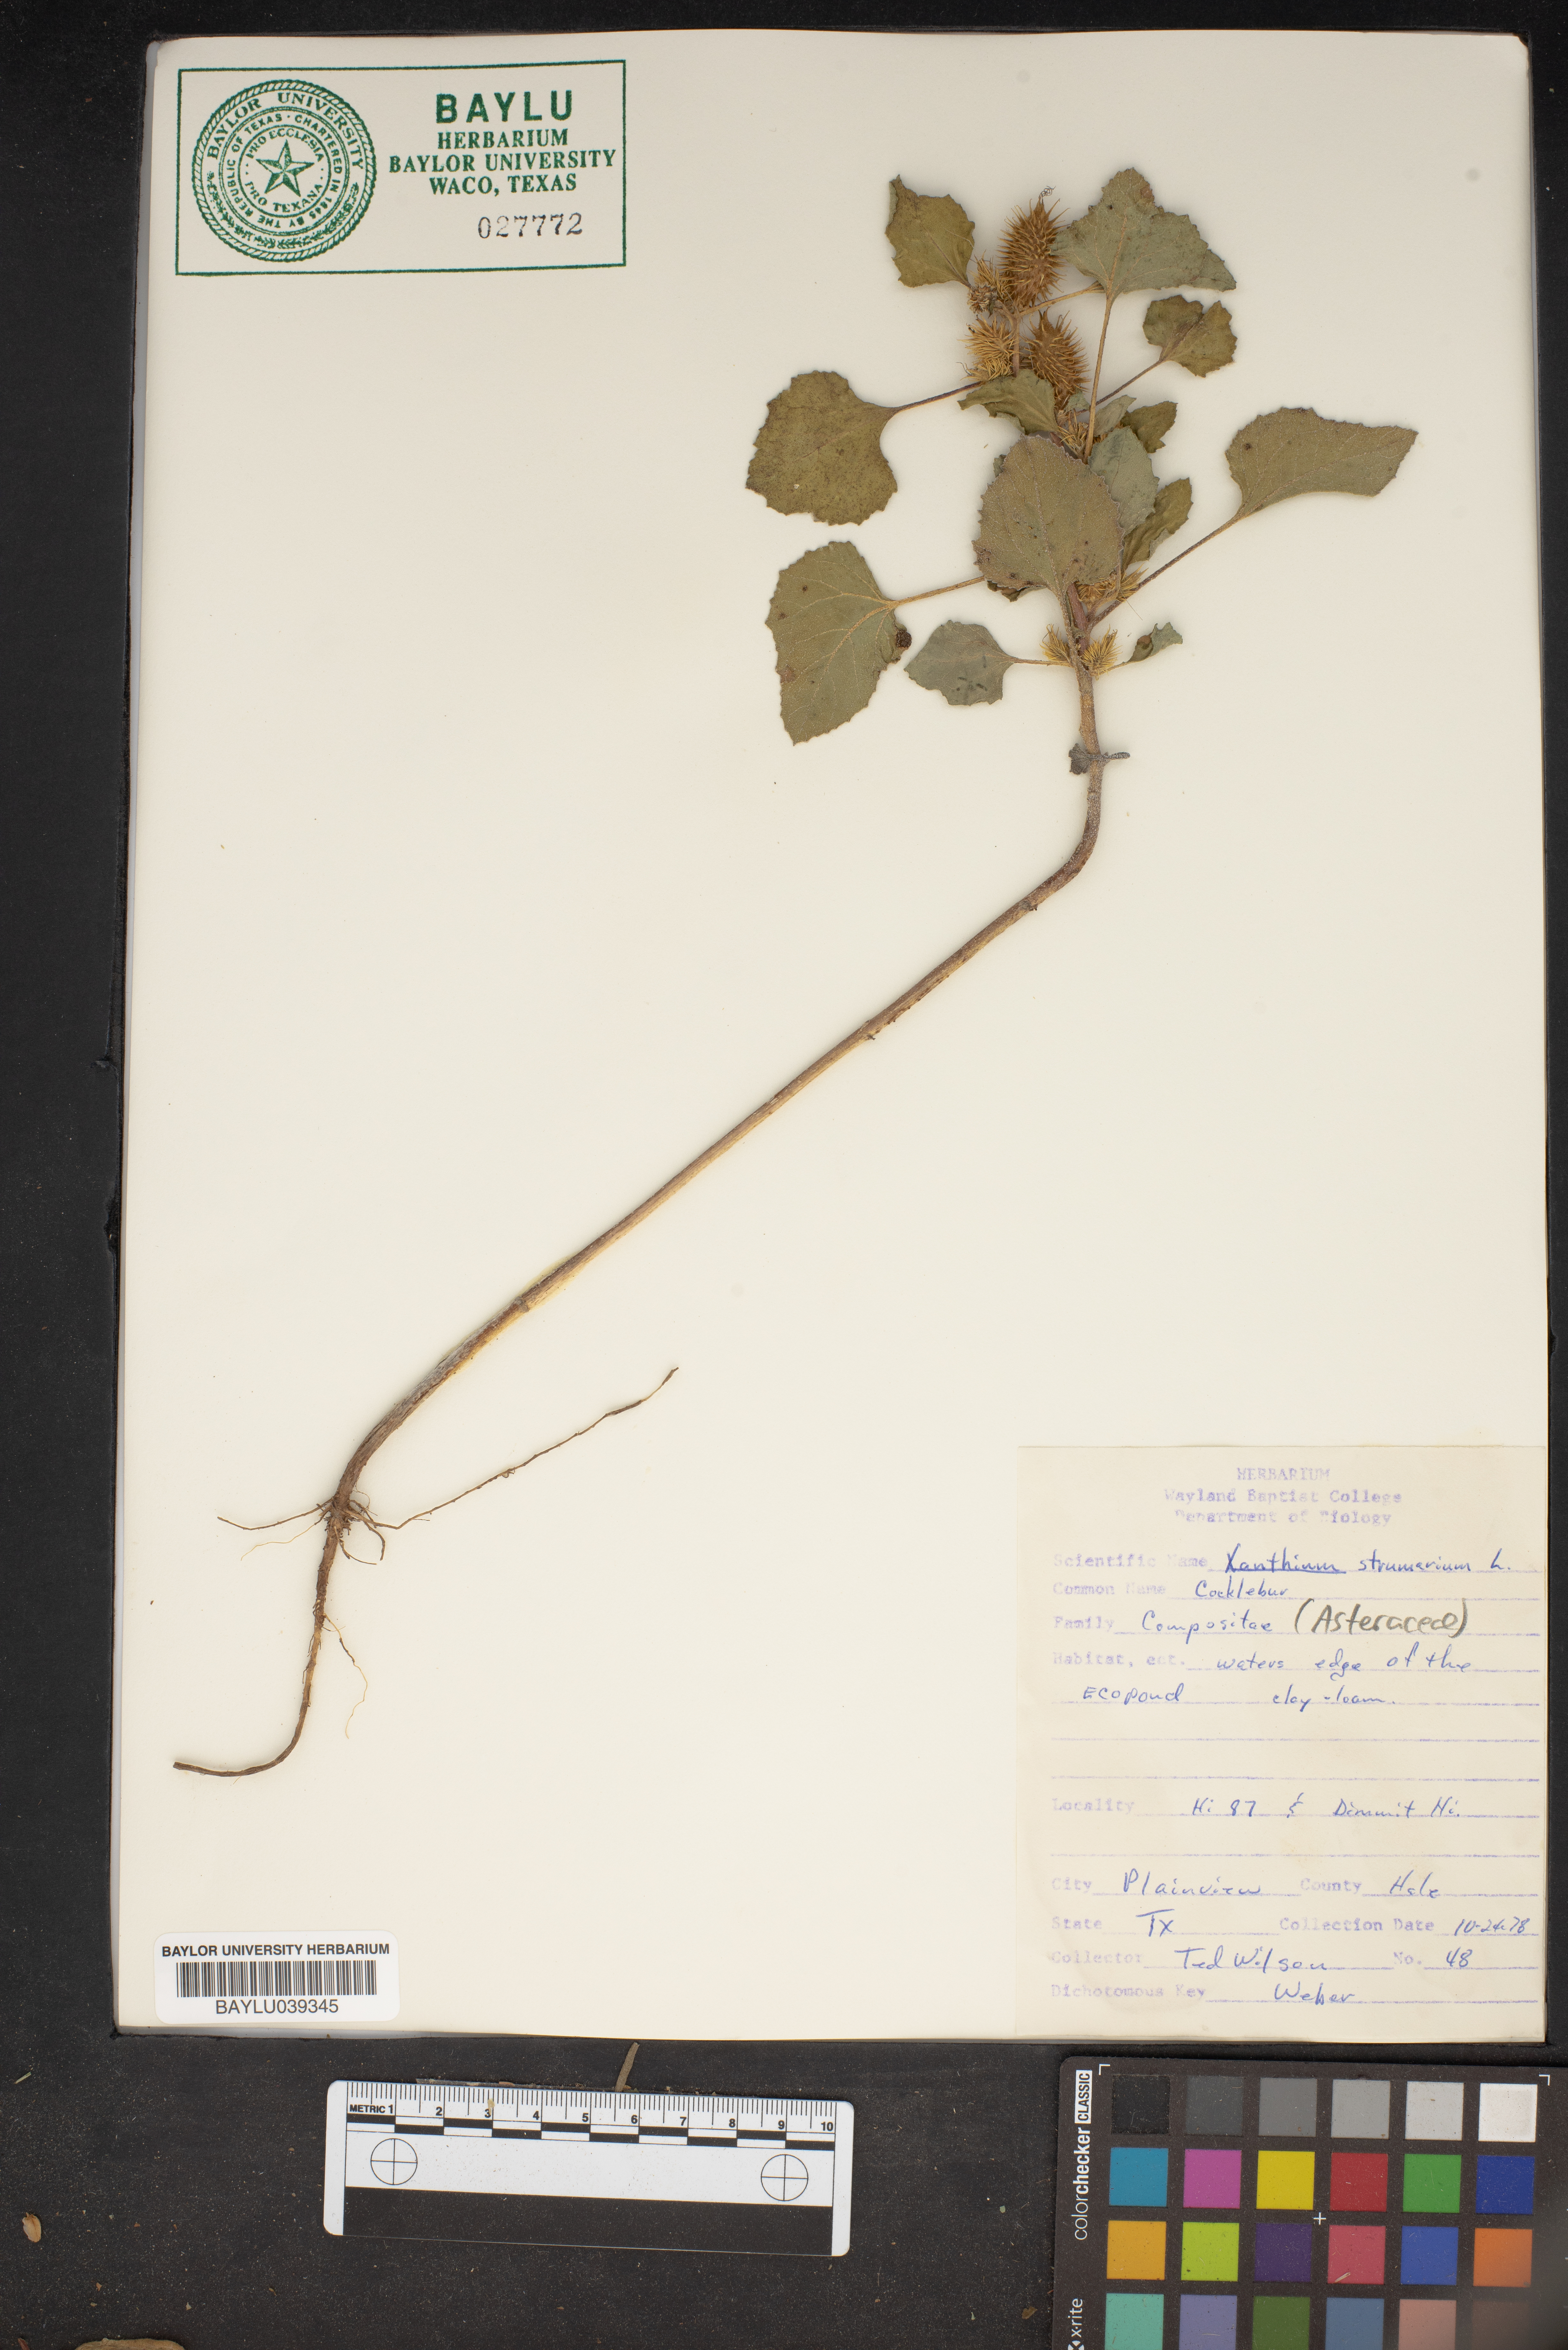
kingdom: Plantae
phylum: Tracheophyta
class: Magnoliopsida
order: Asterales
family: Asteraceae
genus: Xanthium
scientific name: Xanthium strumarium
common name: Rough cocklebur
